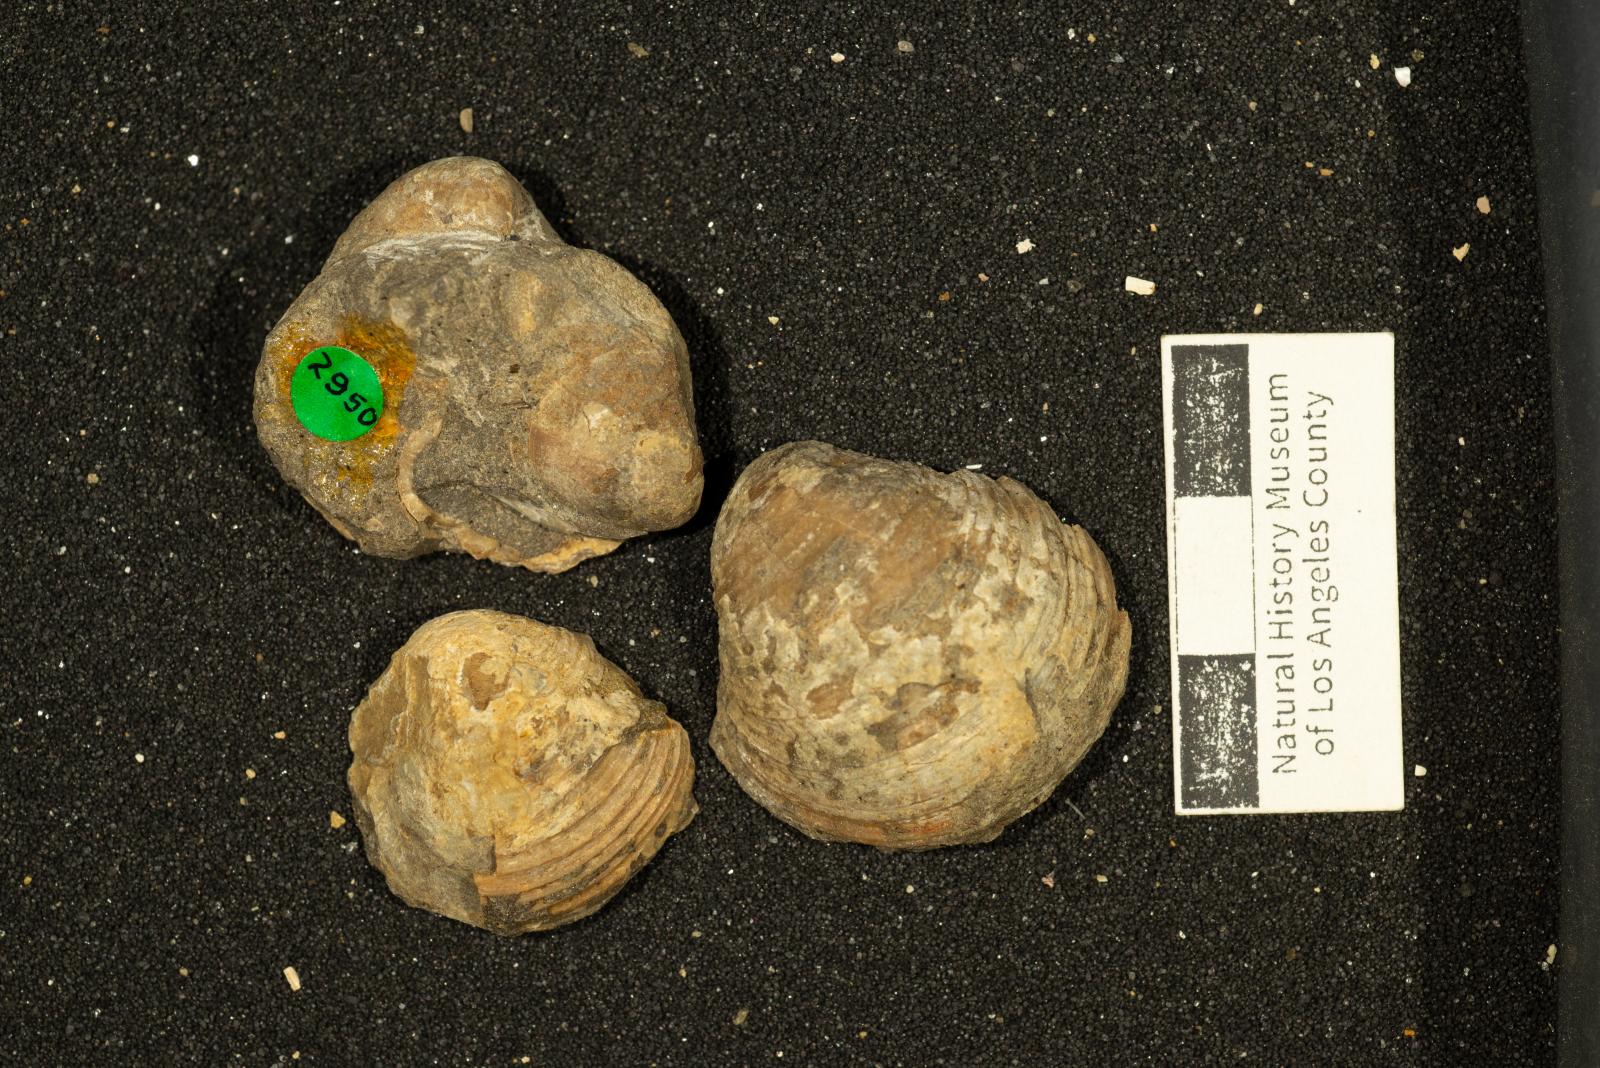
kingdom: Animalia
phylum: Mollusca
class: Bivalvia
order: Adapedonta
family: Edmondiidae
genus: Clisocolus
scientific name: Clisocolus corrugatus
